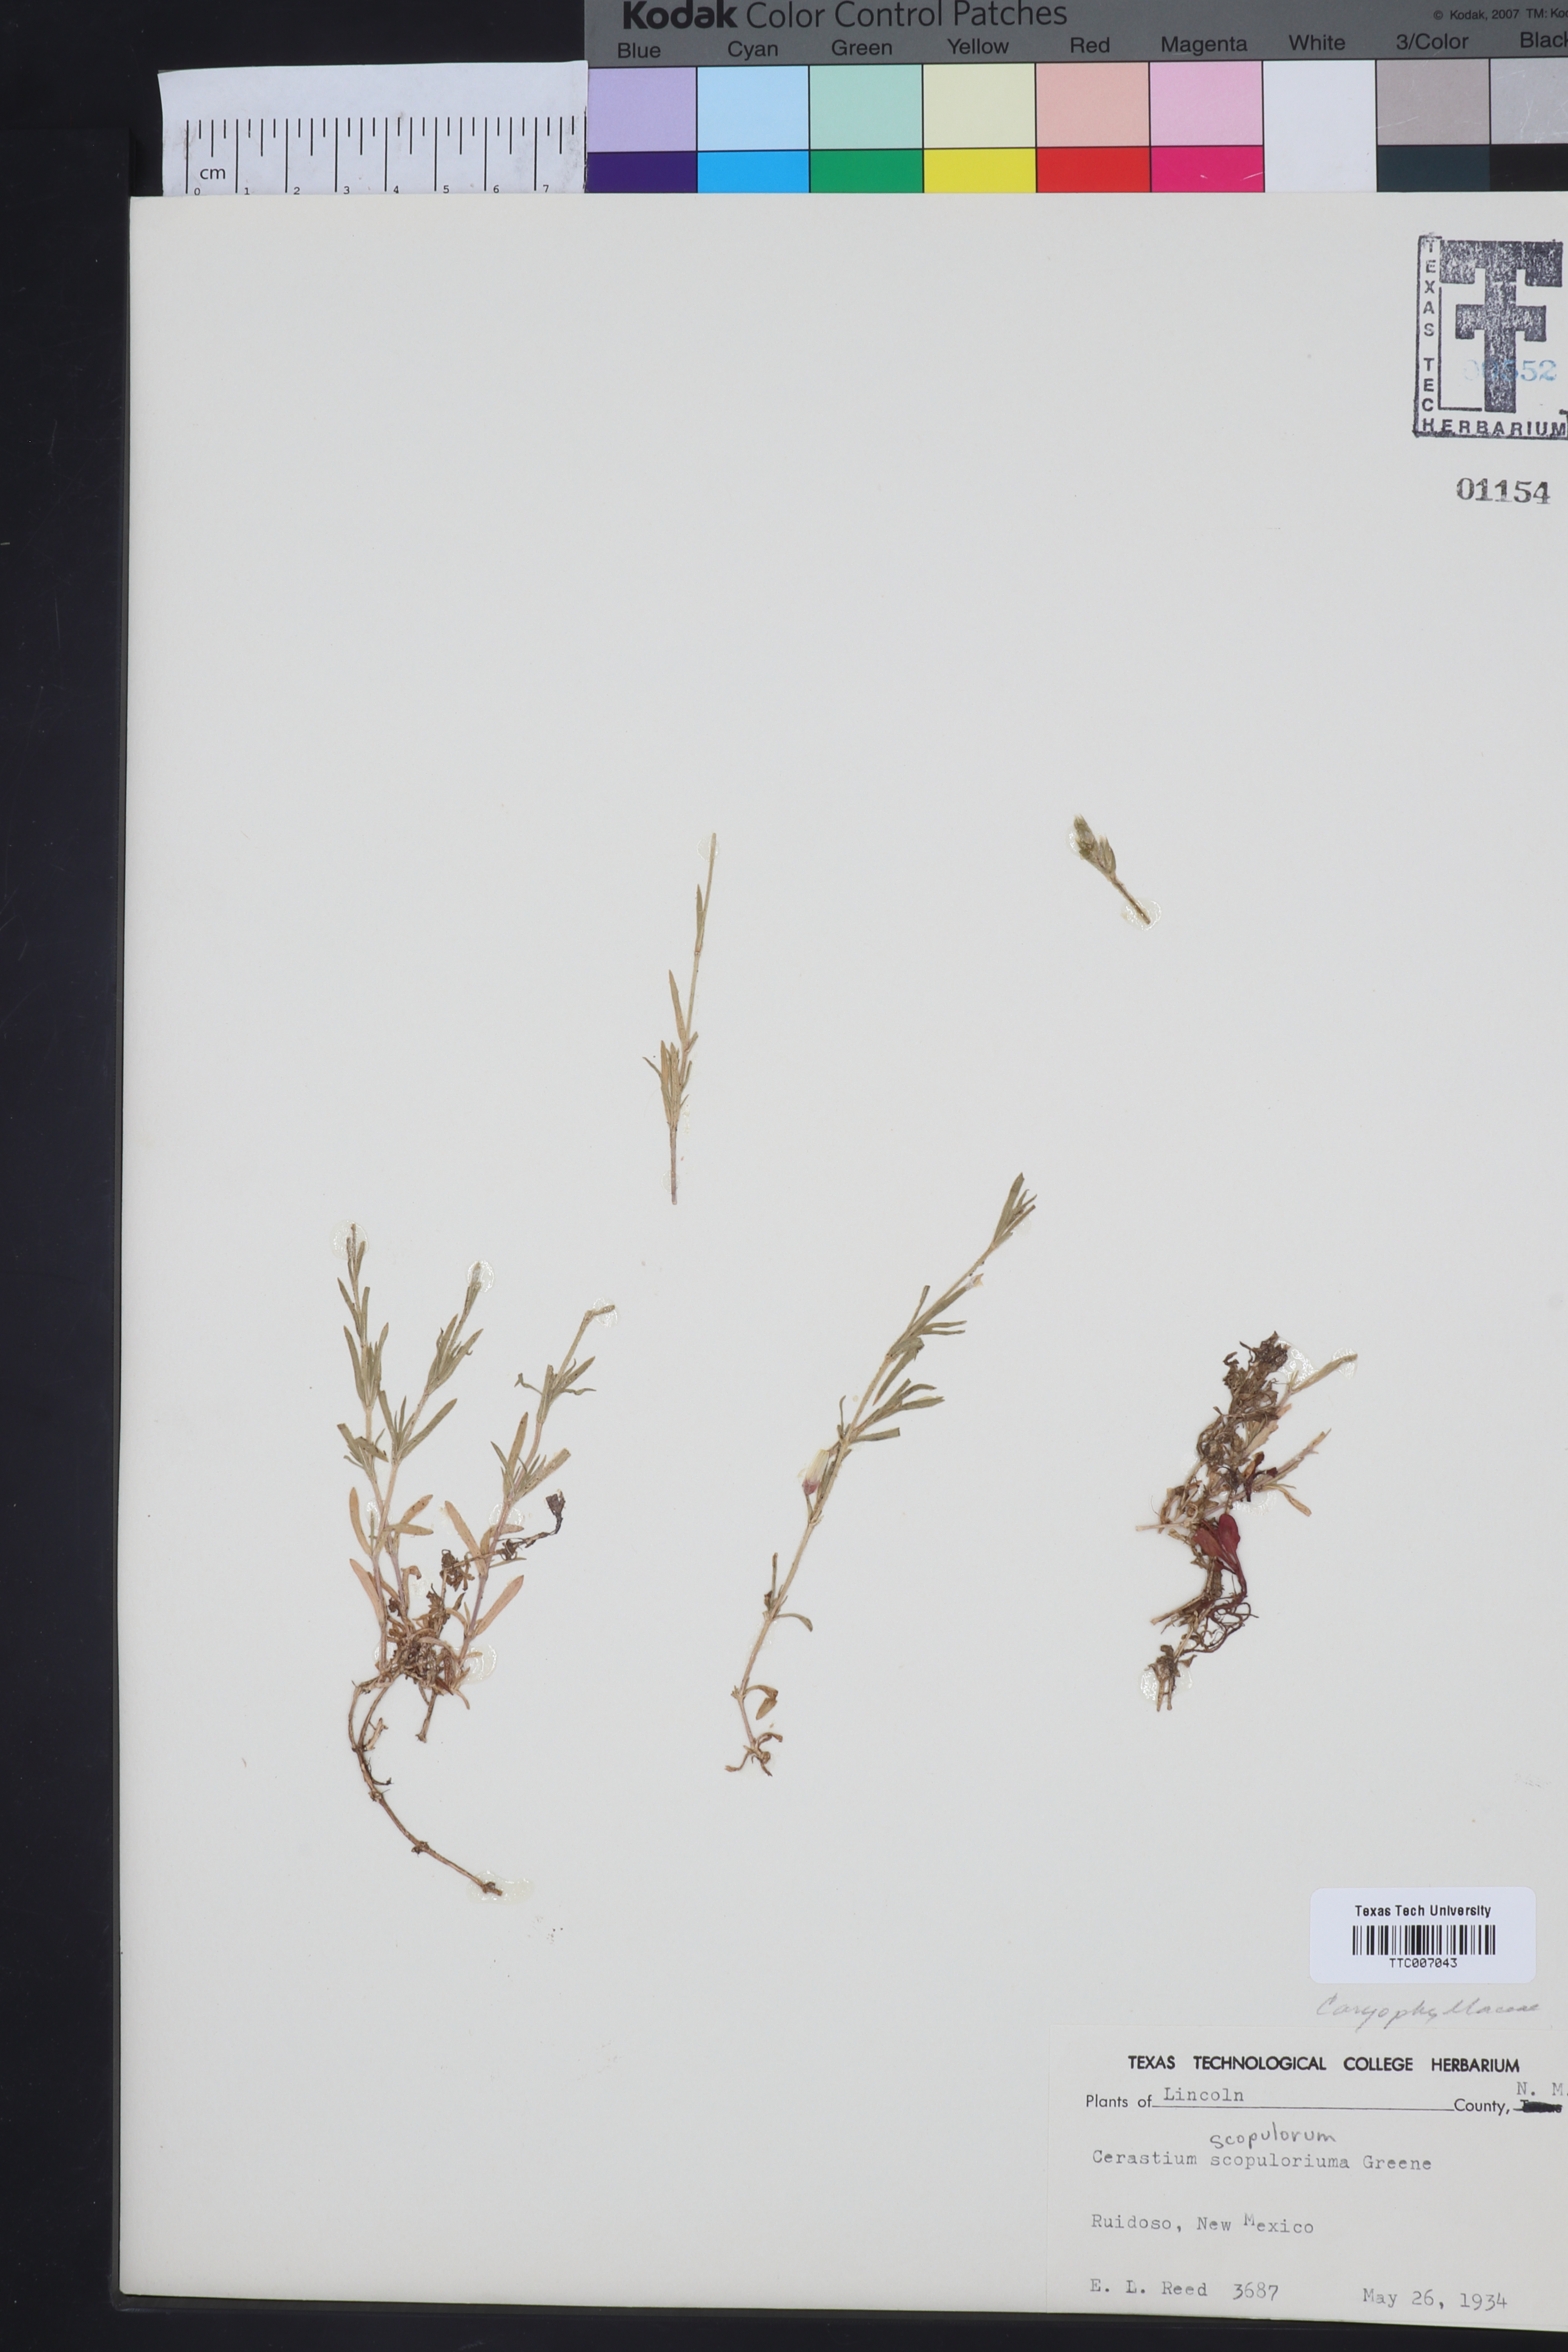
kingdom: Plantae
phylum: Tracheophyta
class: Magnoliopsida
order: Caryophyllales
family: Caryophyllaceae
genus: Cerastium
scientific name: Cerastium elongatum
